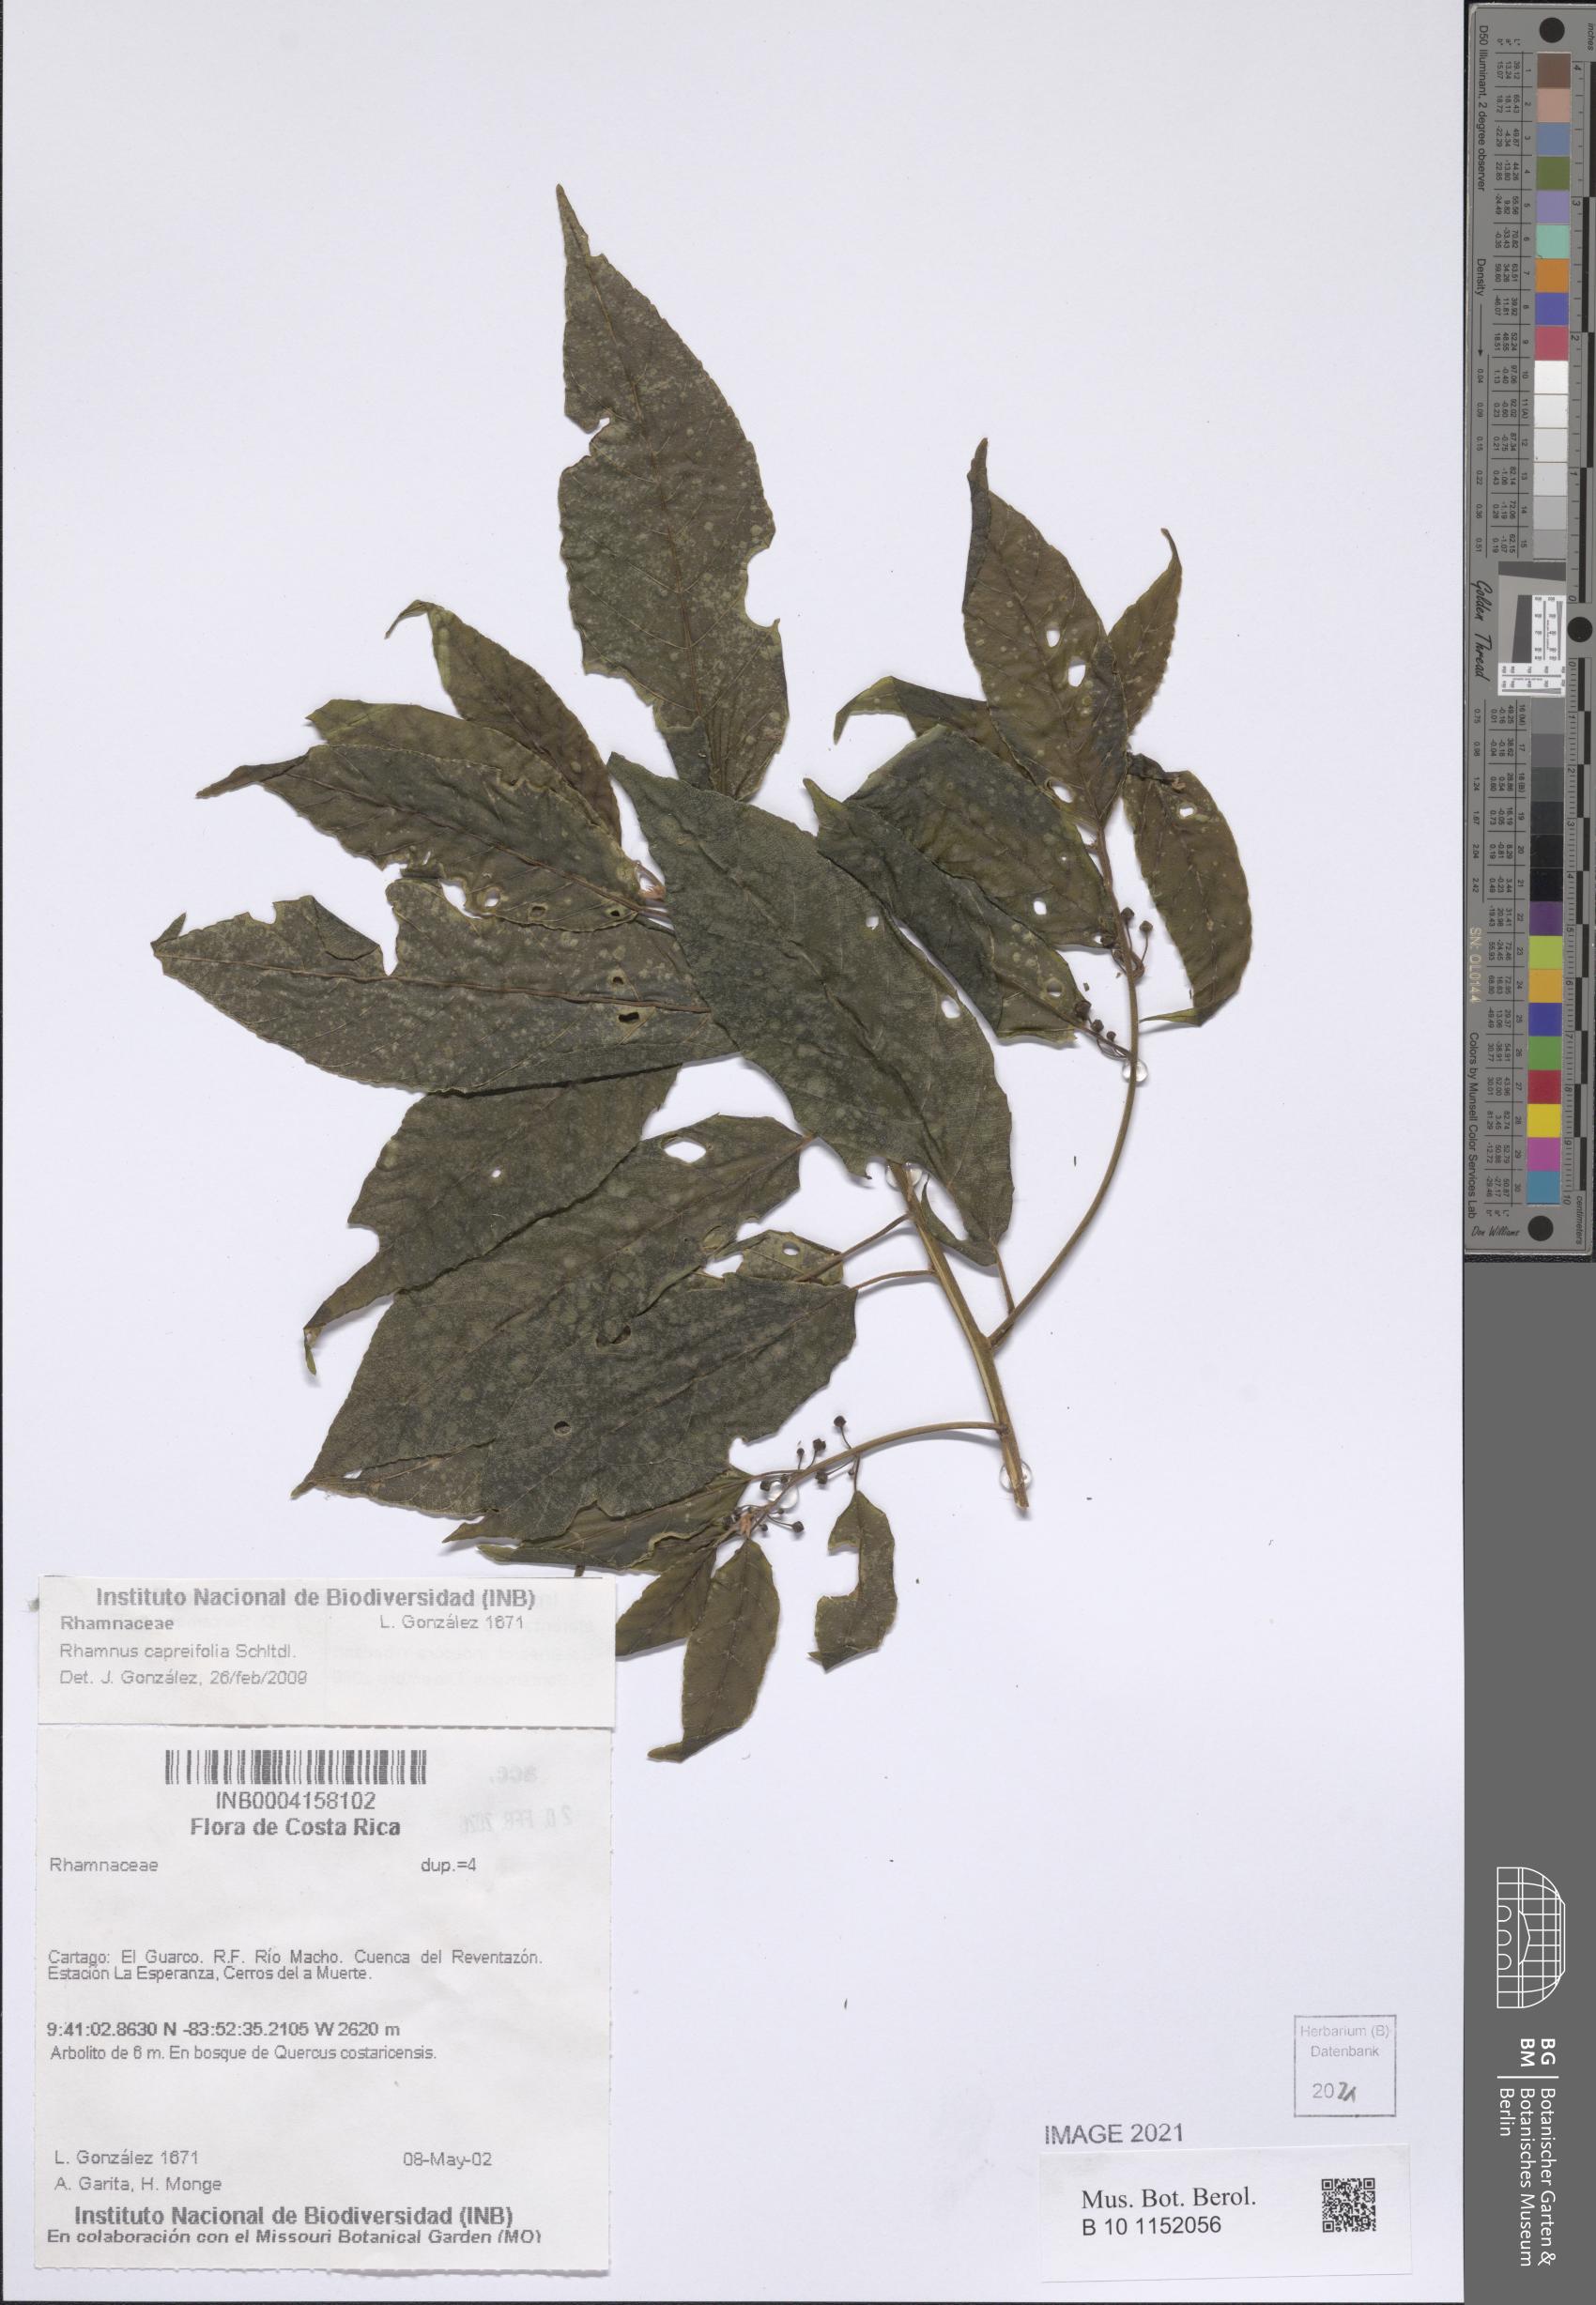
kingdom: Plantae
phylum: Tracheophyta
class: Magnoliopsida
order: Rosales
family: Rhamnaceae
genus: Frangula
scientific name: Frangula oreodendron
